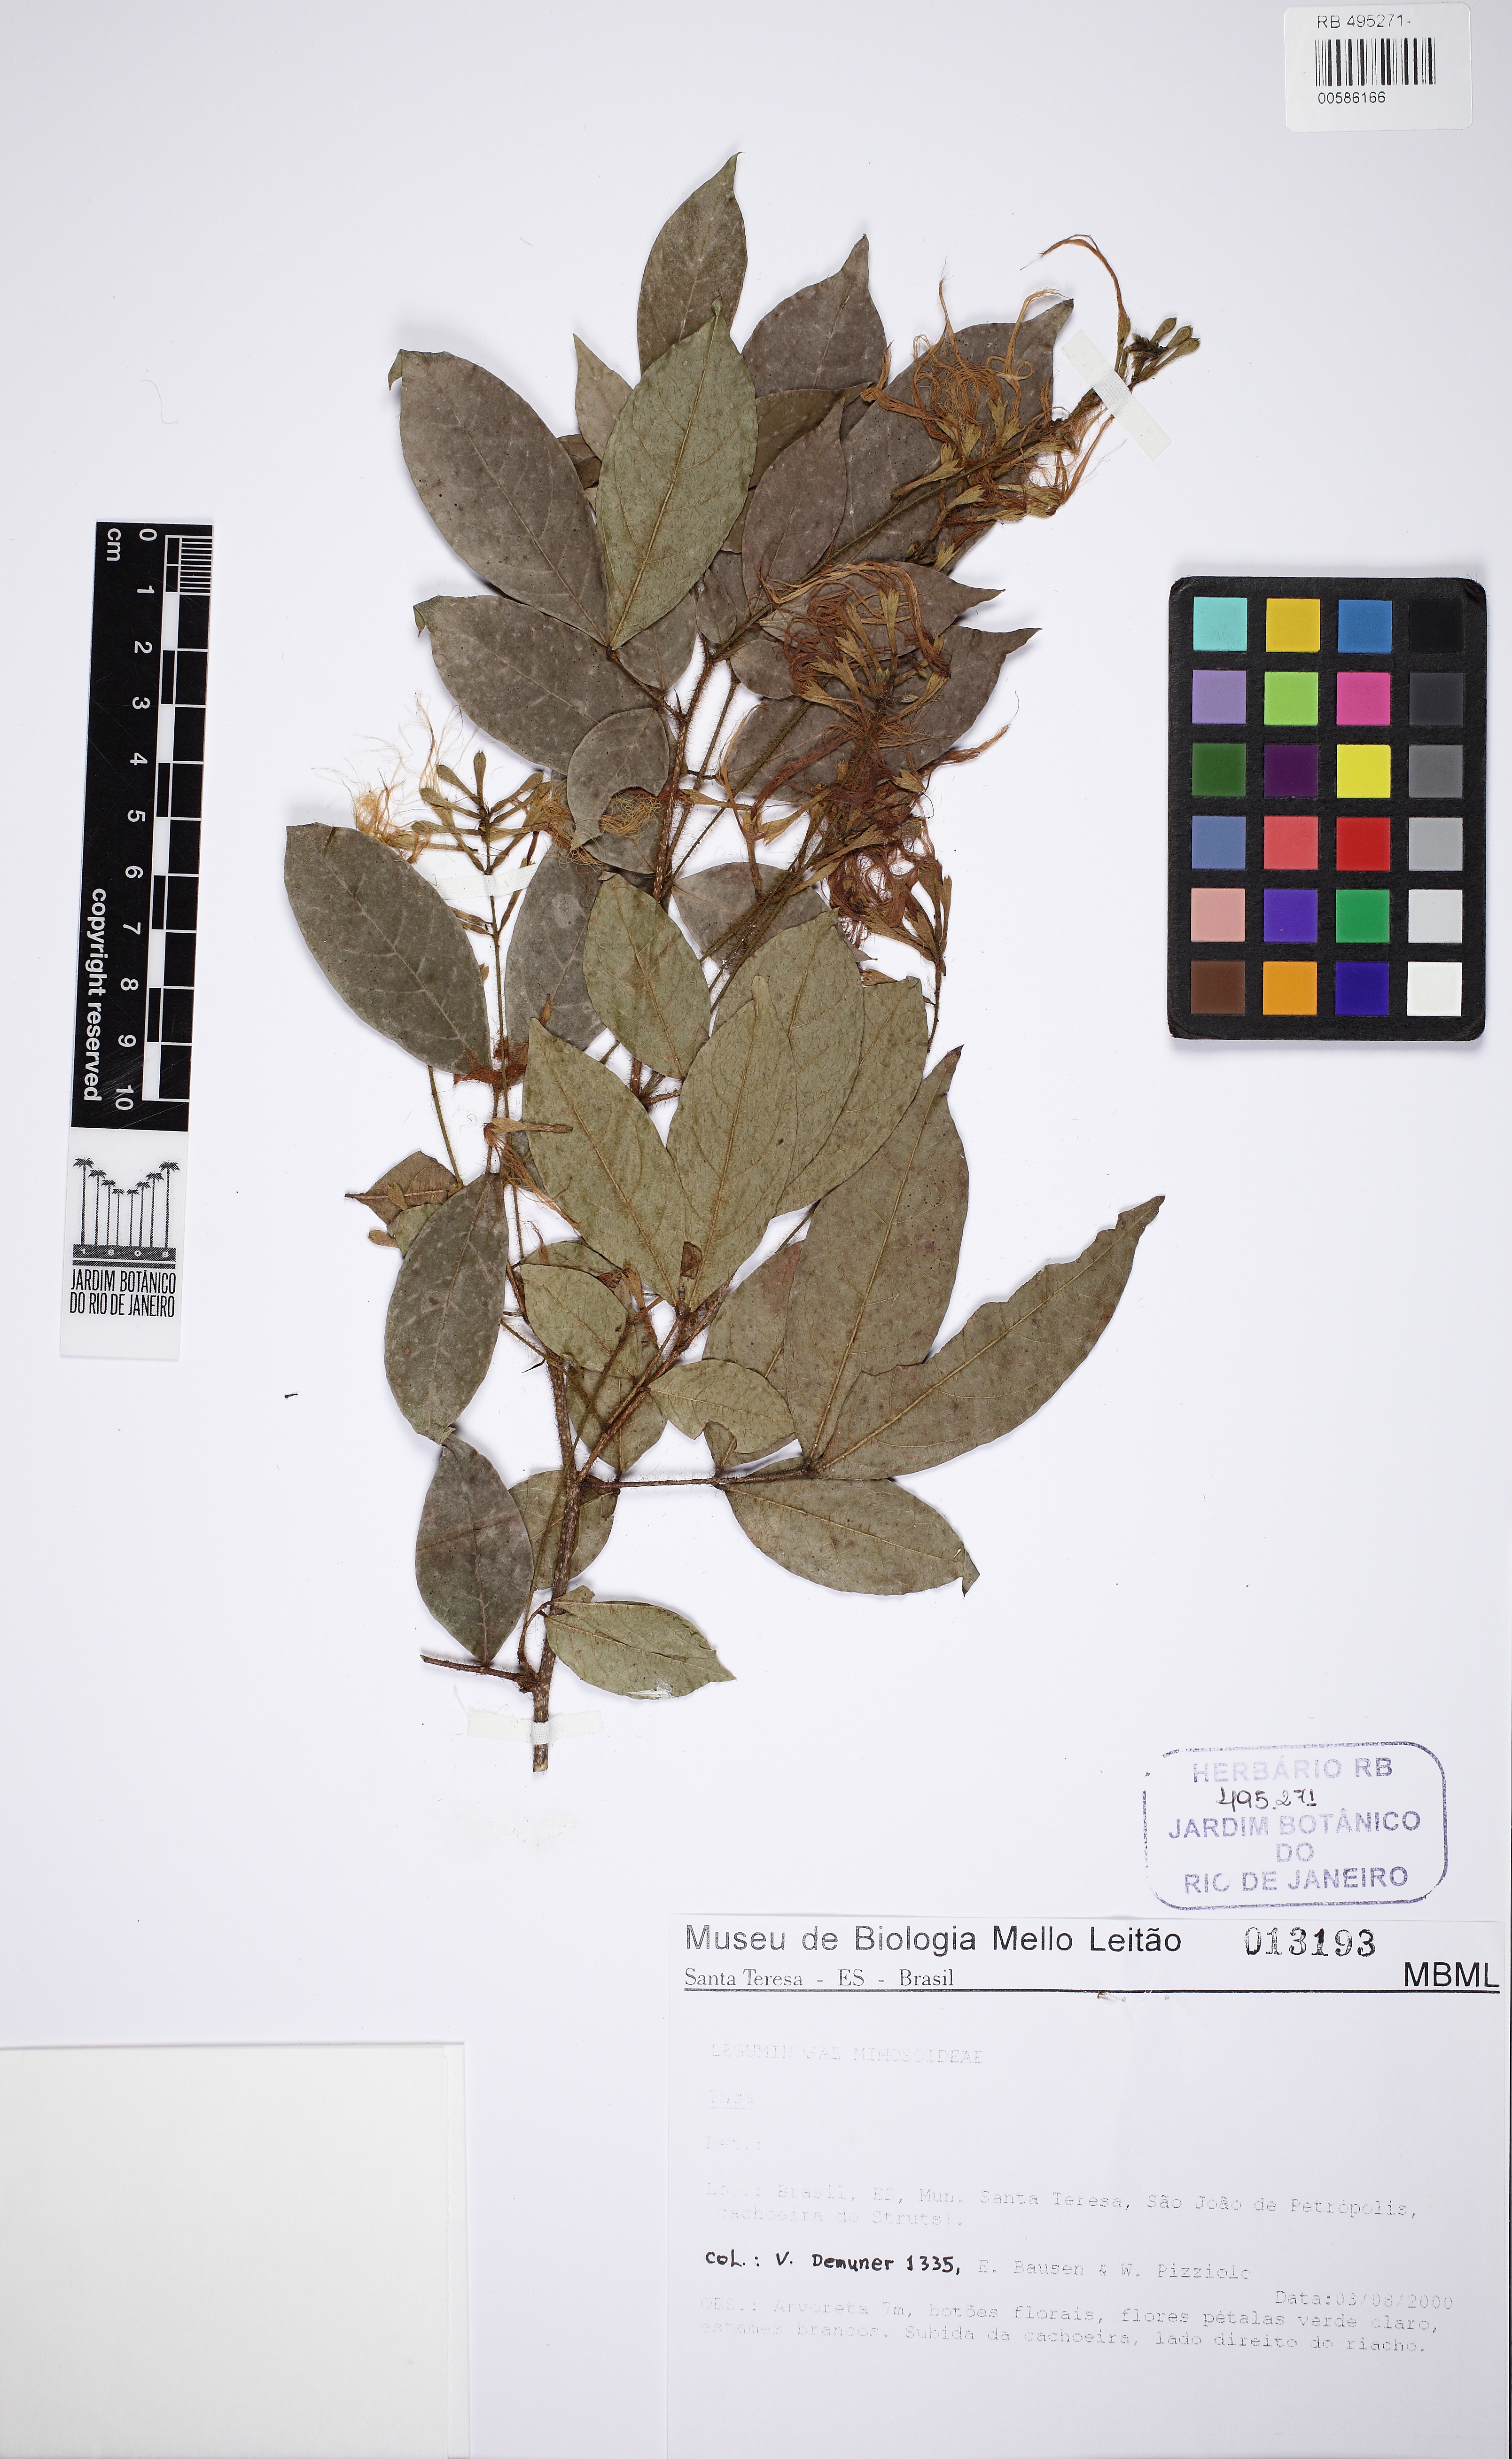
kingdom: Plantae
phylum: Tracheophyta
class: Magnoliopsida
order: Fabales
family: Fabaceae
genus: Inga
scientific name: Inga
